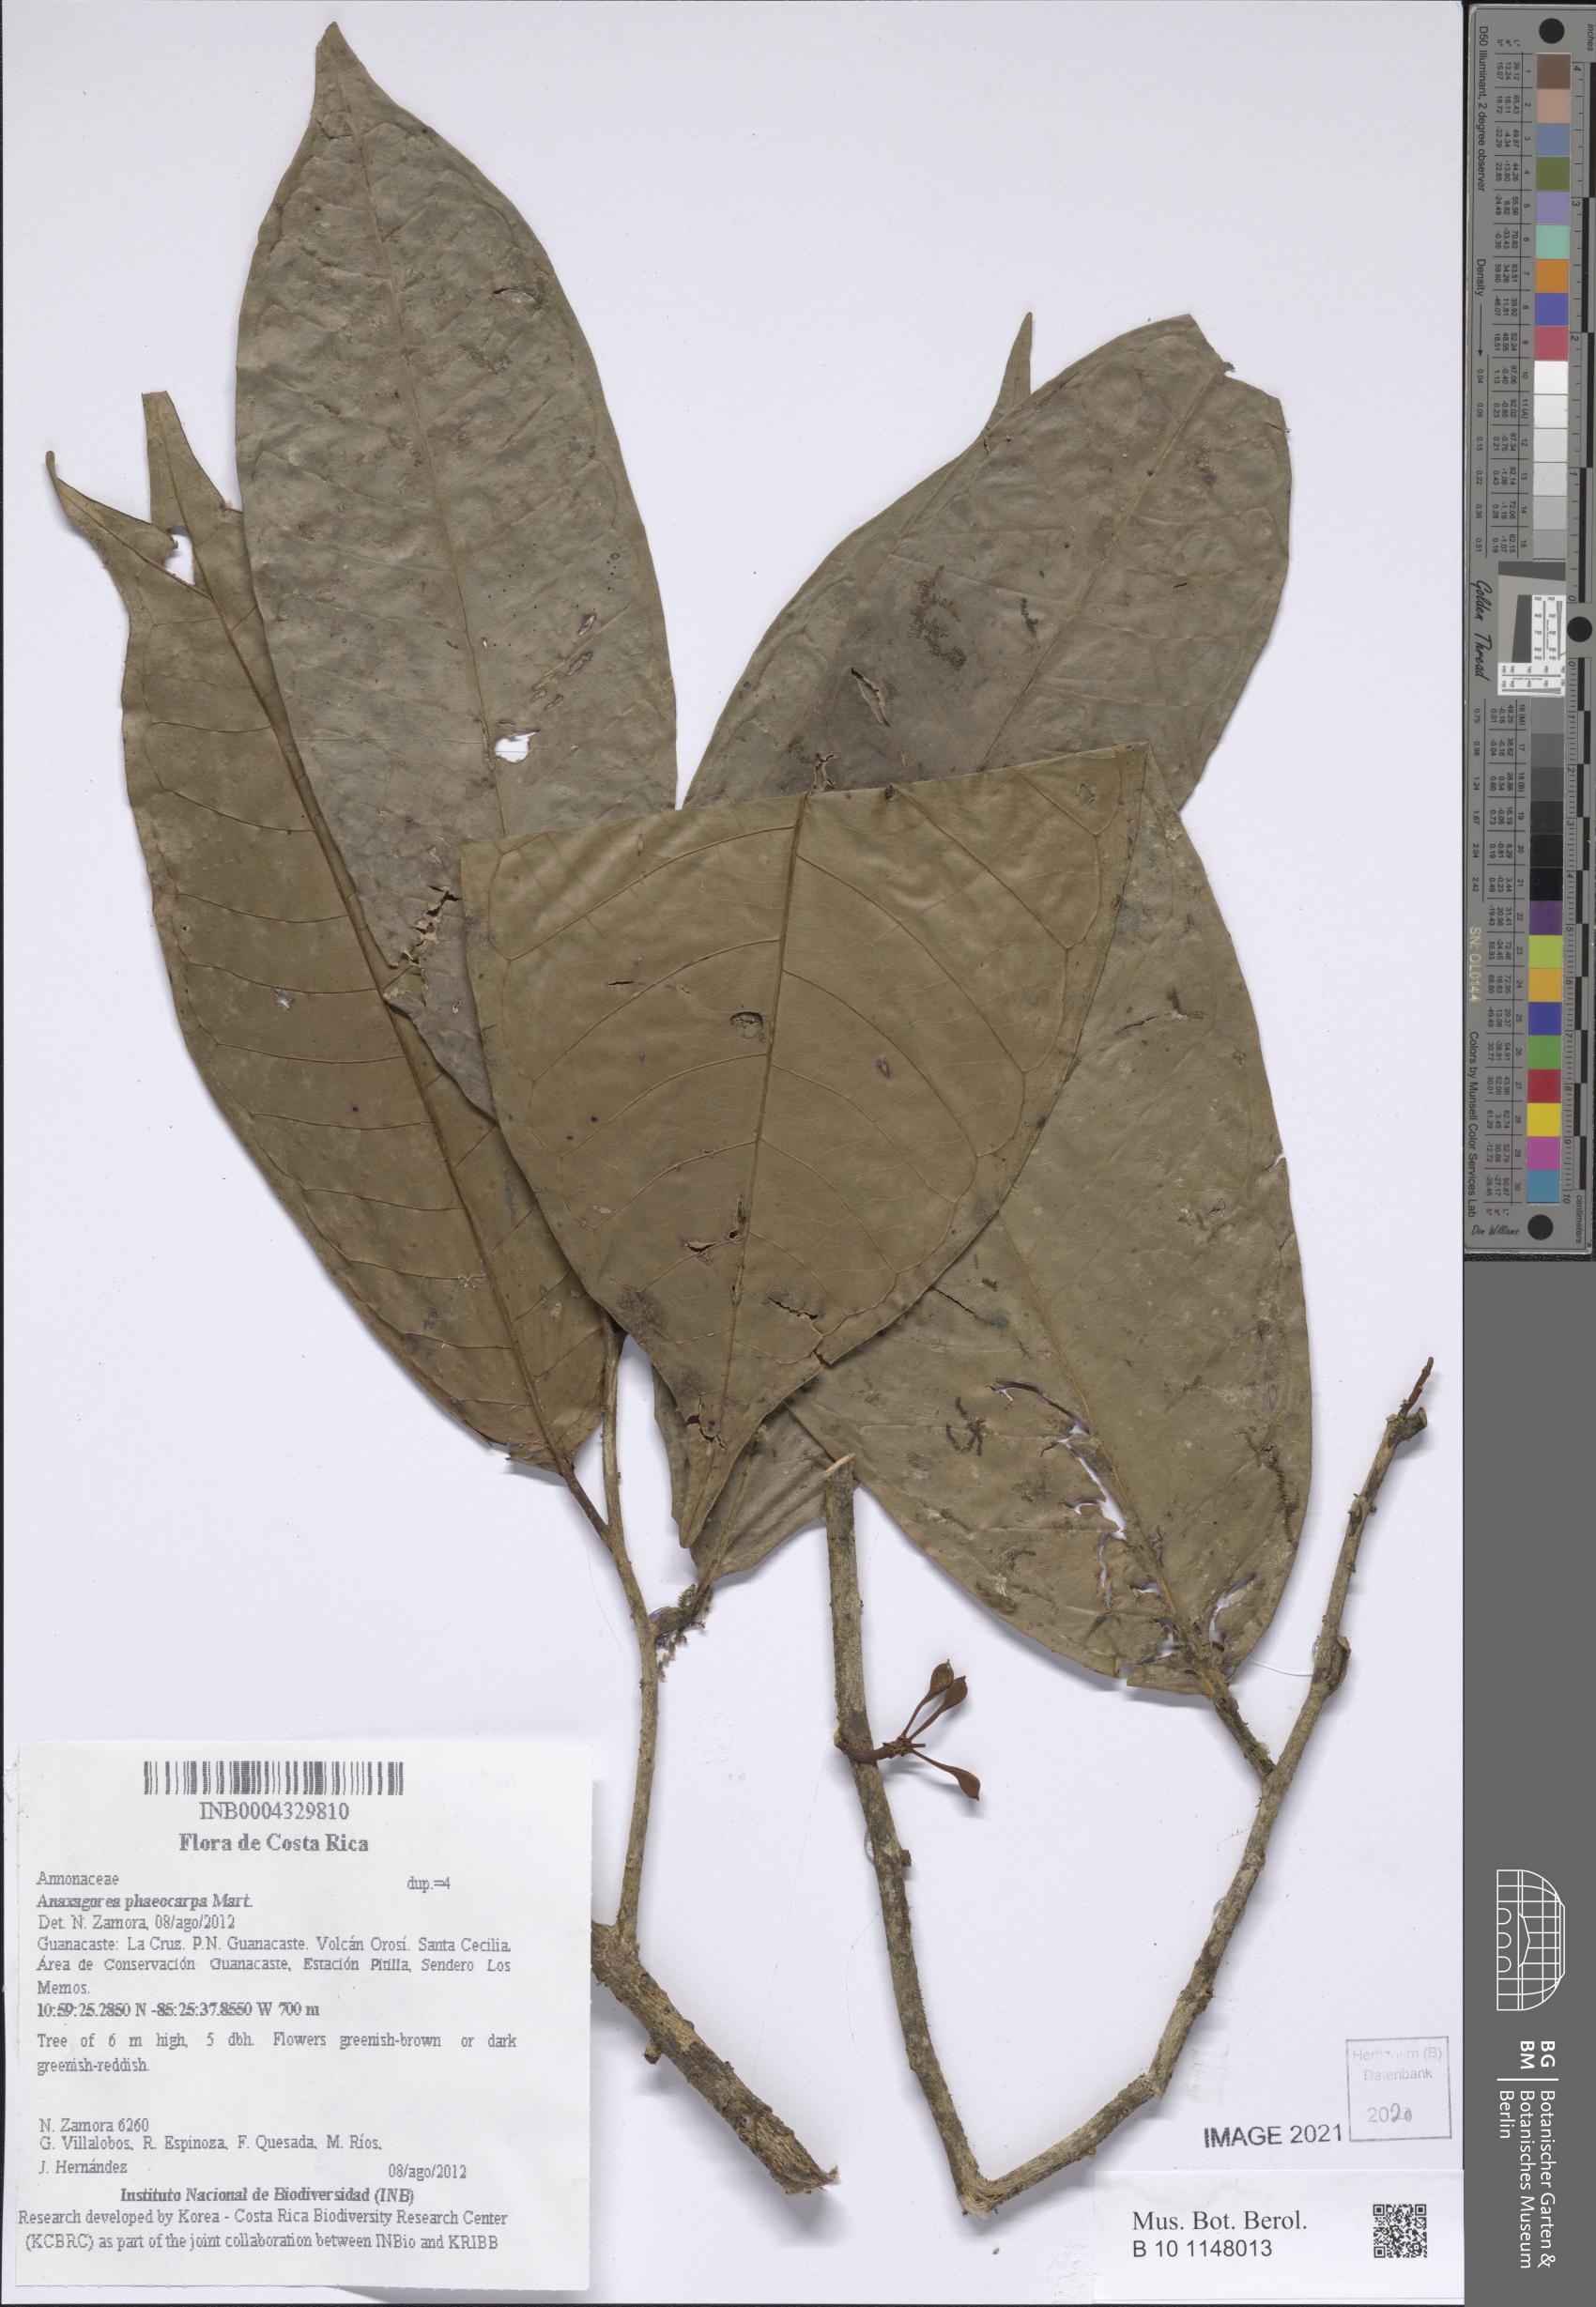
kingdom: Plantae
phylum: Tracheophyta
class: Magnoliopsida
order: Magnoliales
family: Annonaceae
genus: Anaxagorea
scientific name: Anaxagorea phaeocarpa
